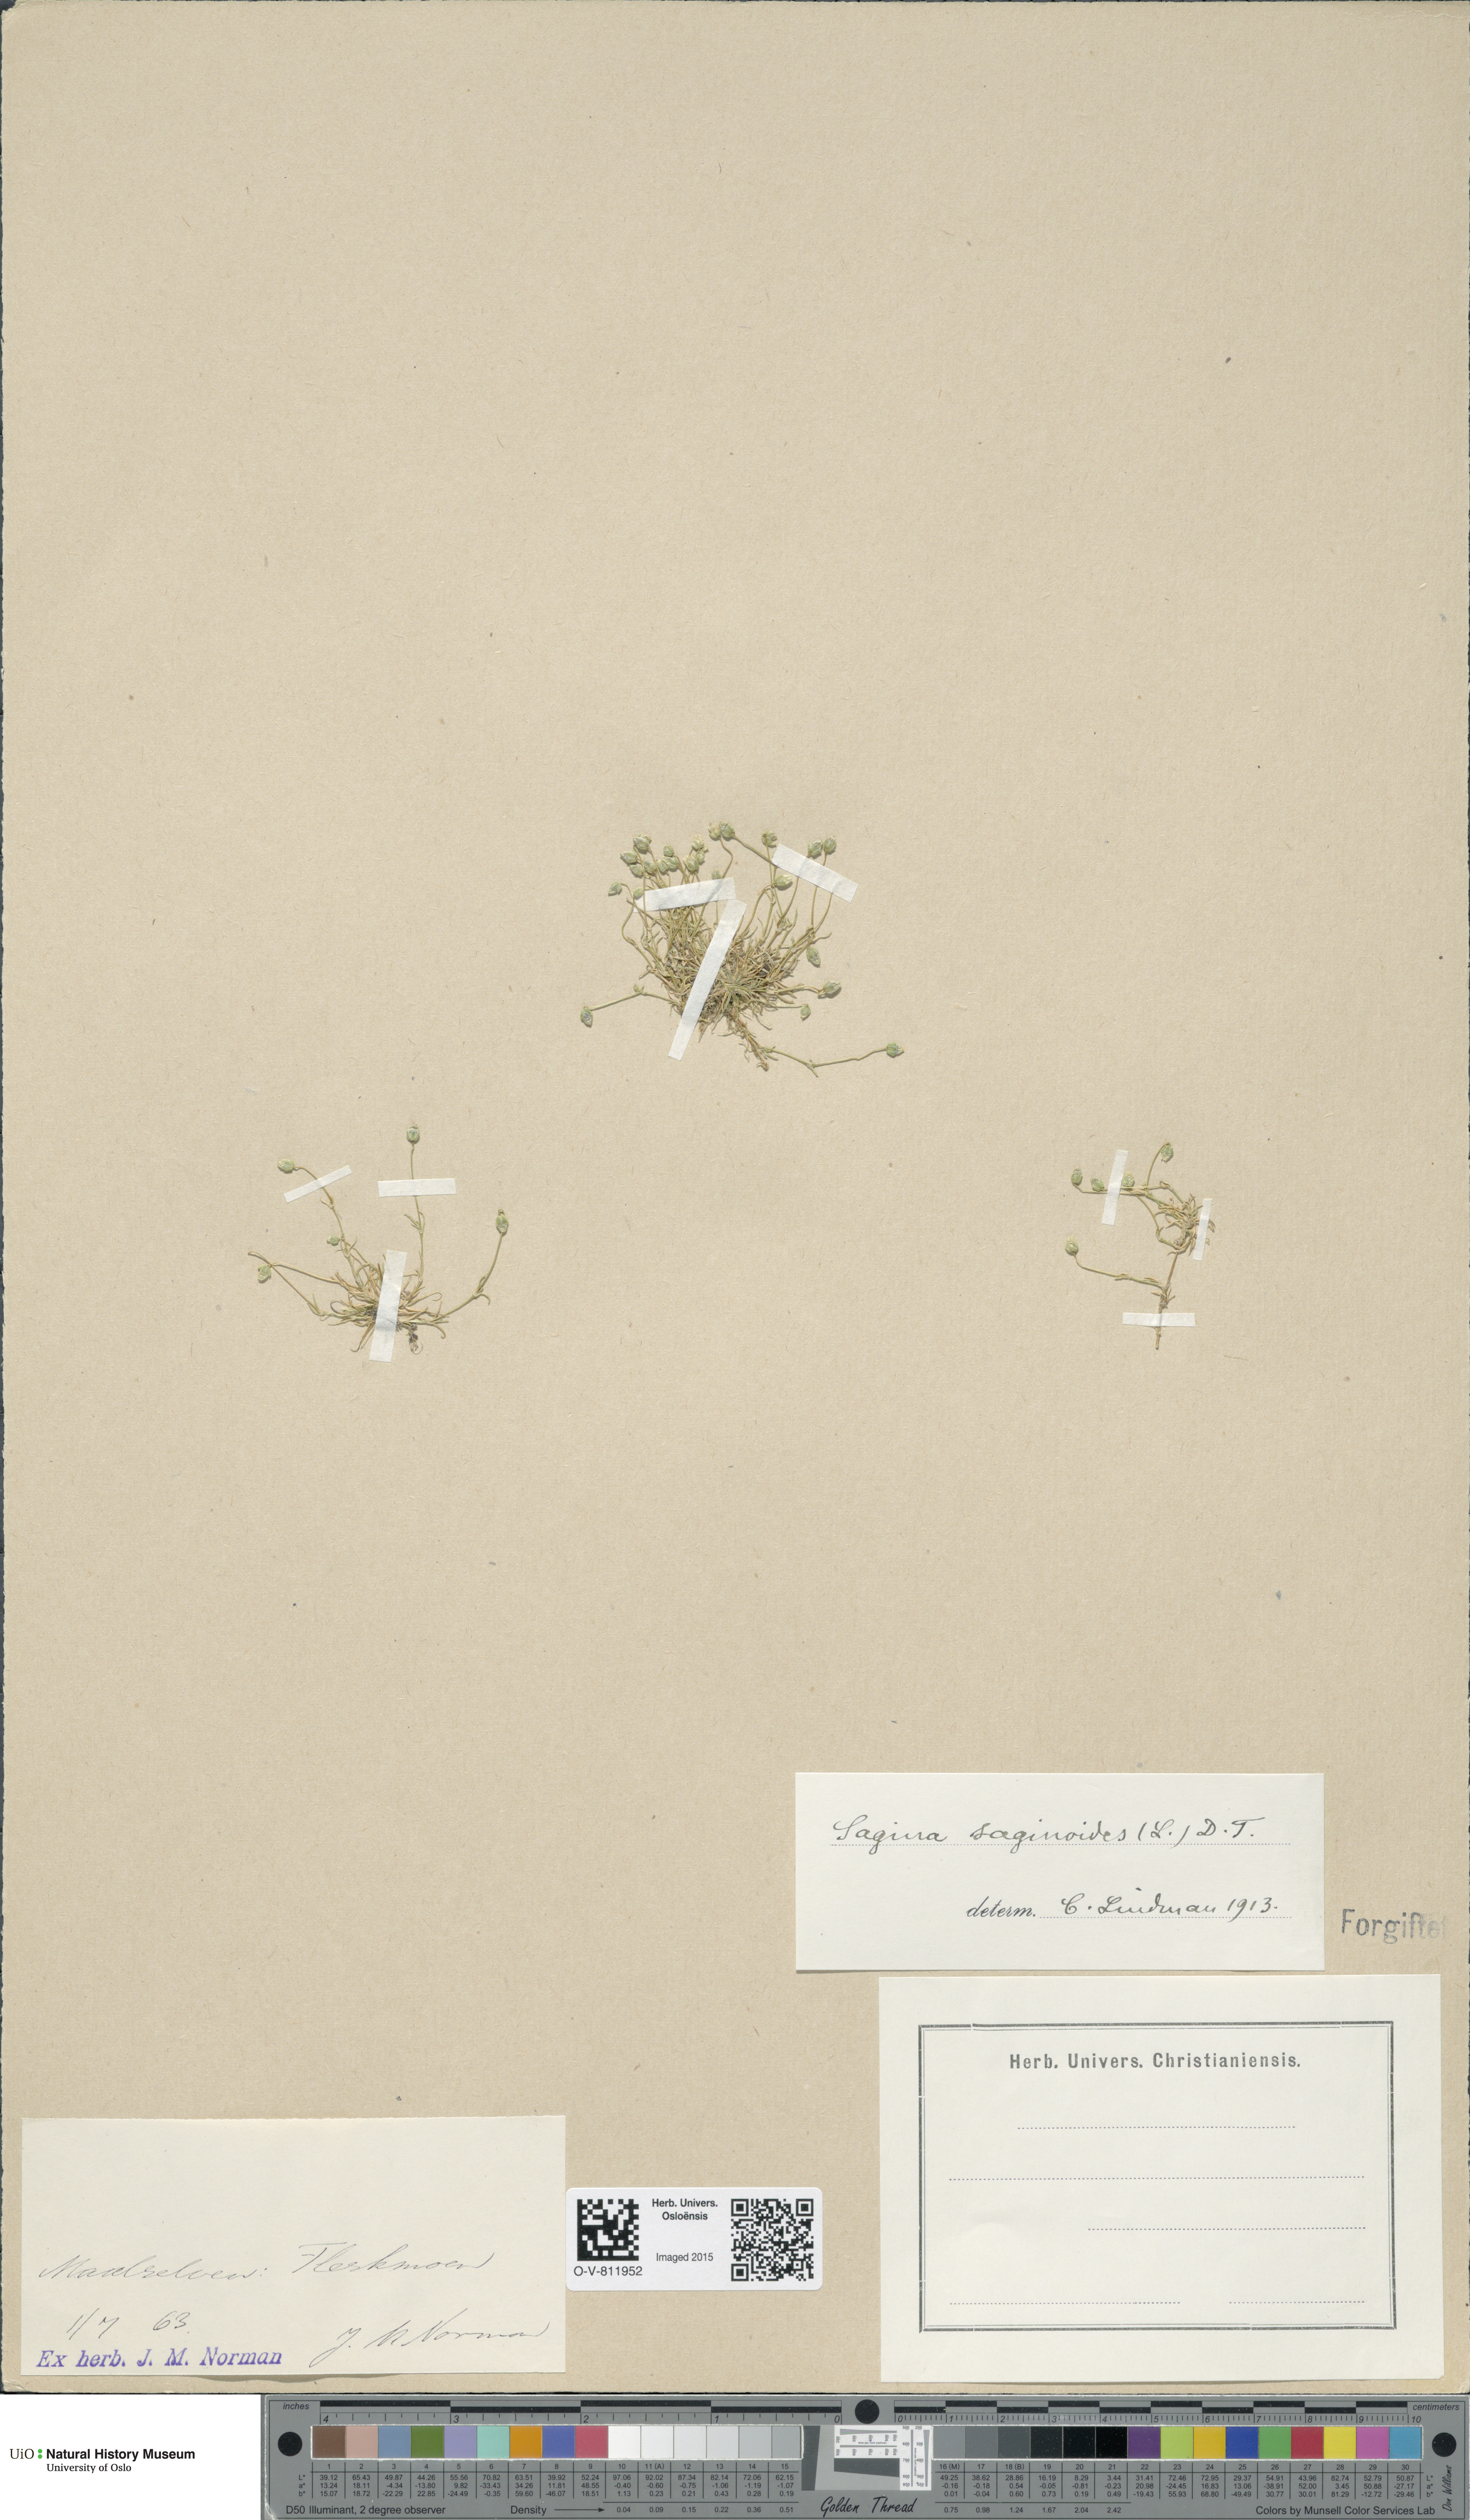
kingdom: Plantae
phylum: Tracheophyta
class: Magnoliopsida
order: Caryophyllales
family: Caryophyllaceae
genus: Sagina
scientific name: Sagina saginoides
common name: Alpine pearlwort
